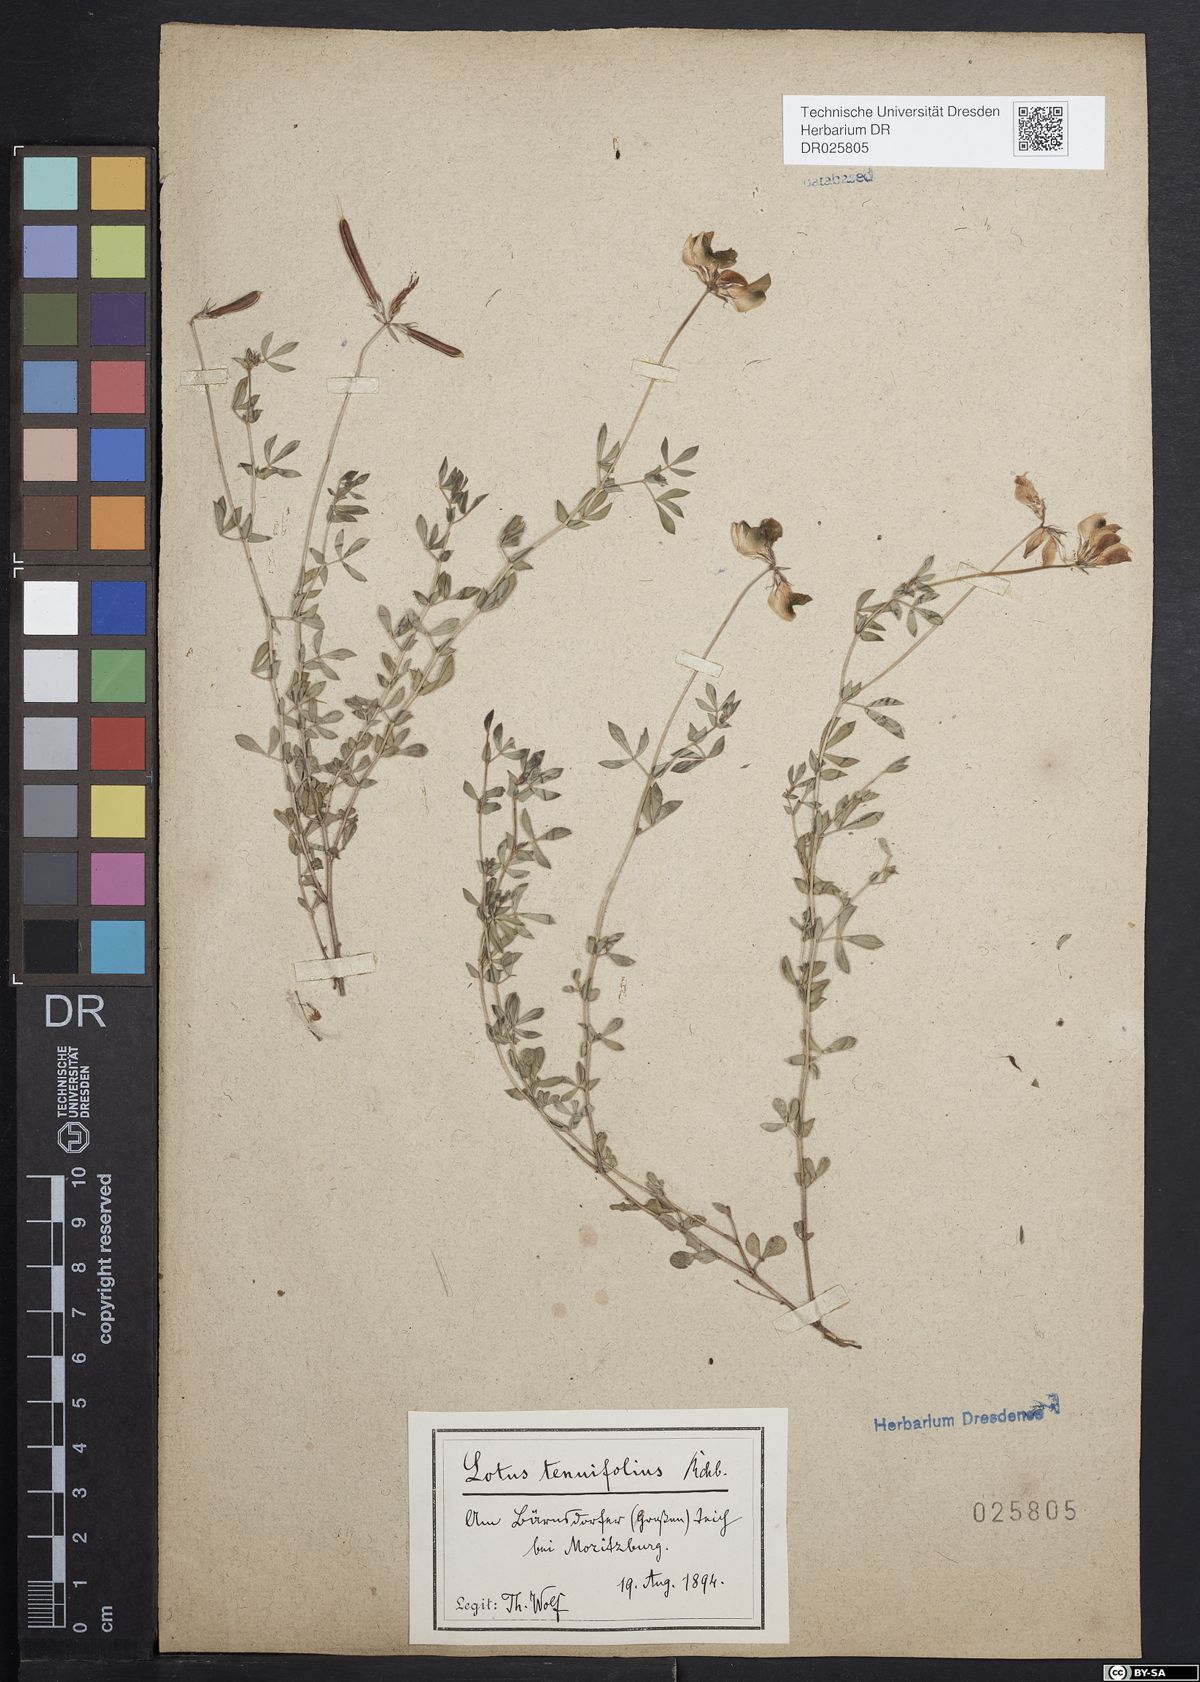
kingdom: Plantae
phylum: Tracheophyta
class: Magnoliopsida
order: Fabales
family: Fabaceae
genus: Lotus
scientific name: Lotus tenuis
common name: Narrow-leaved bird's-foot-trefoil
